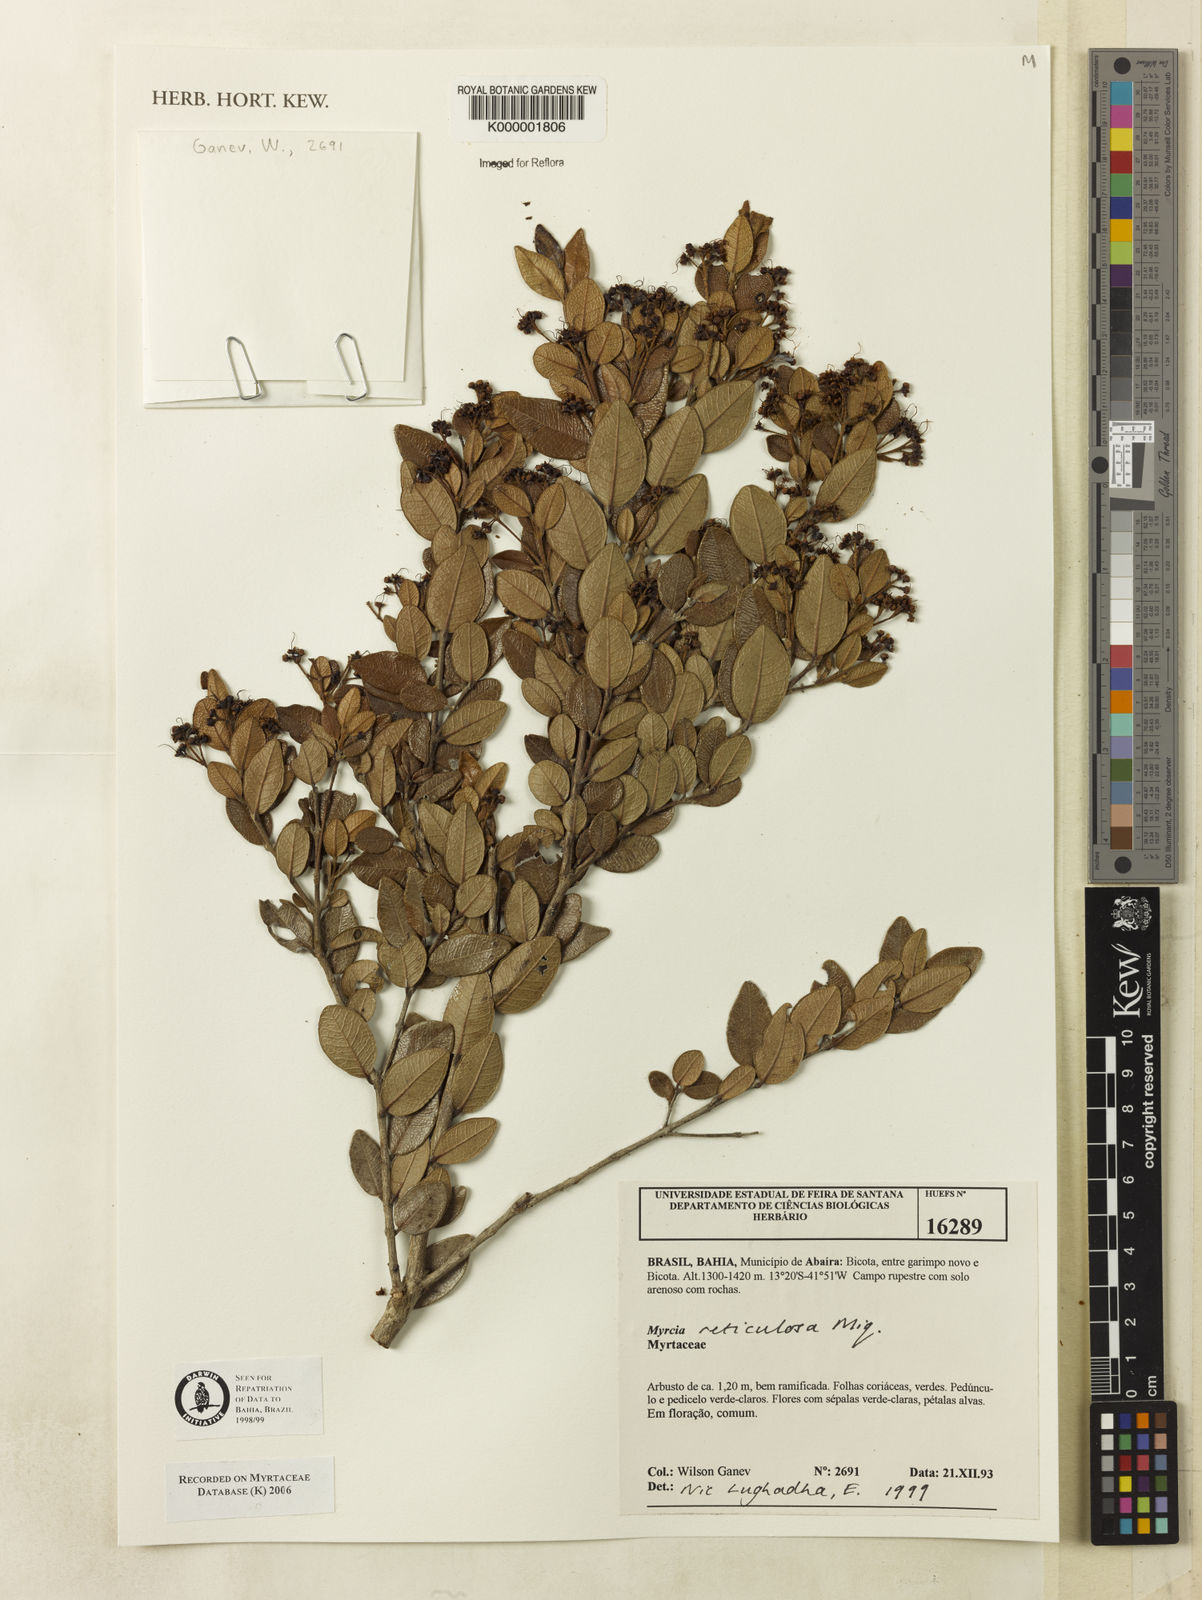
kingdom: Plantae
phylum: Tracheophyta
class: Magnoliopsida
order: Myrtales
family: Myrtaceae
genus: Myrcia
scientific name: Myrcia reticulosa
